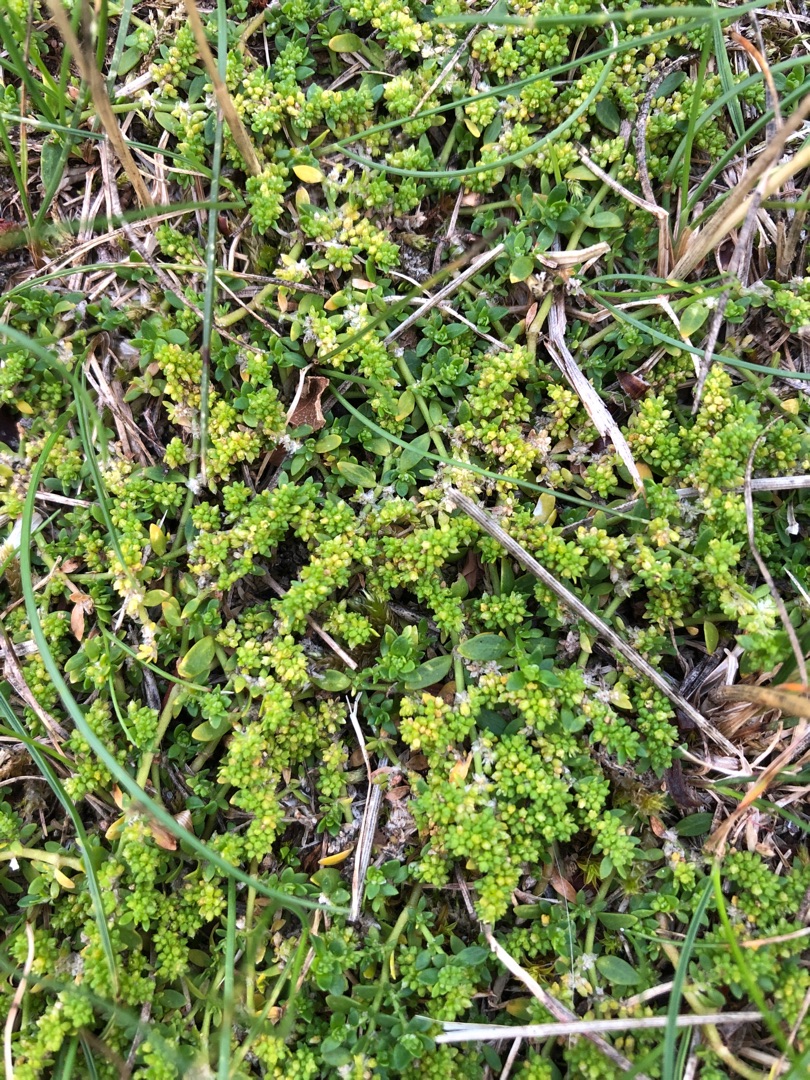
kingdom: Plantae
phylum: Tracheophyta
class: Magnoliopsida
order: Caryophyllales
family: Caryophyllaceae
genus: Herniaria
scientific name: Herniaria glabra
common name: Brudurt
